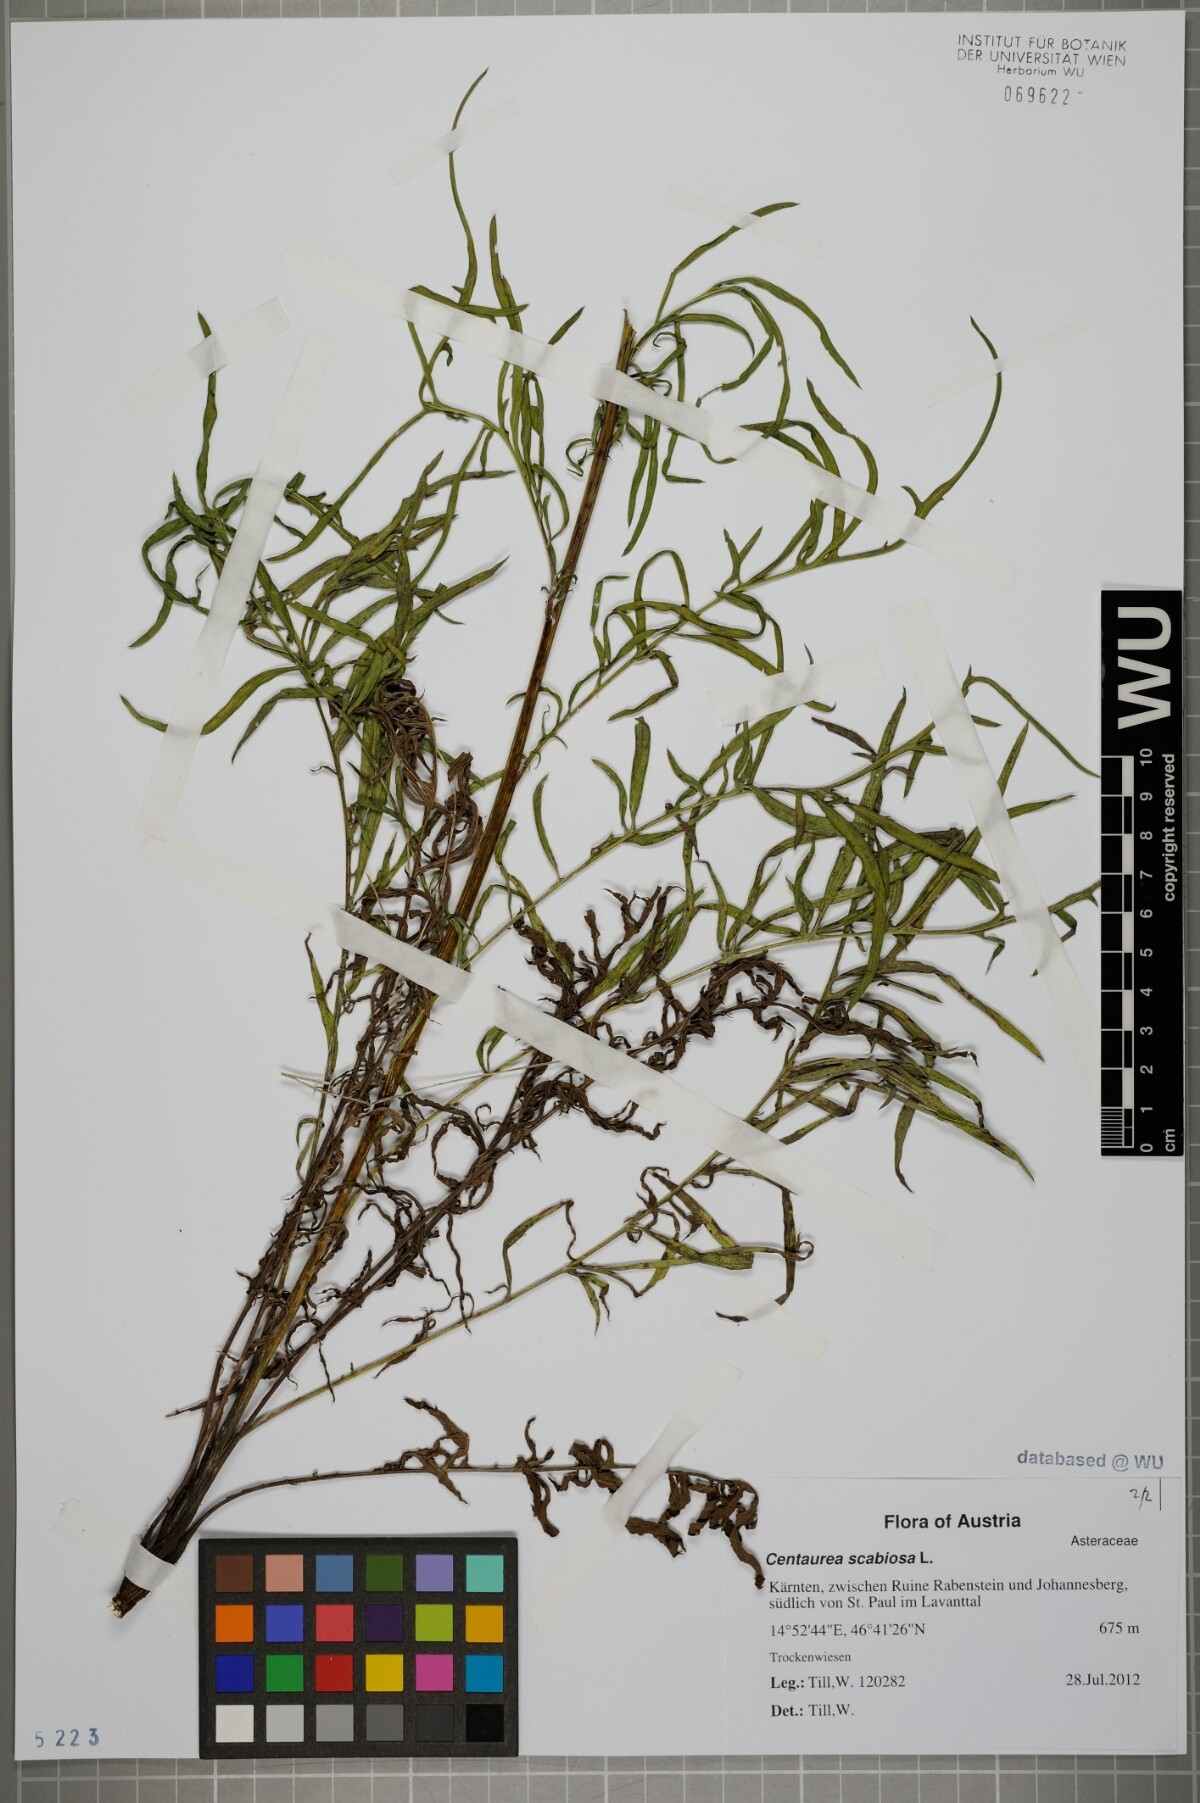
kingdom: Plantae
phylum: Tracheophyta
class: Magnoliopsida
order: Asterales
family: Asteraceae
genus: Centaurea
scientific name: Centaurea scabiosa
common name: Greater knapweed
